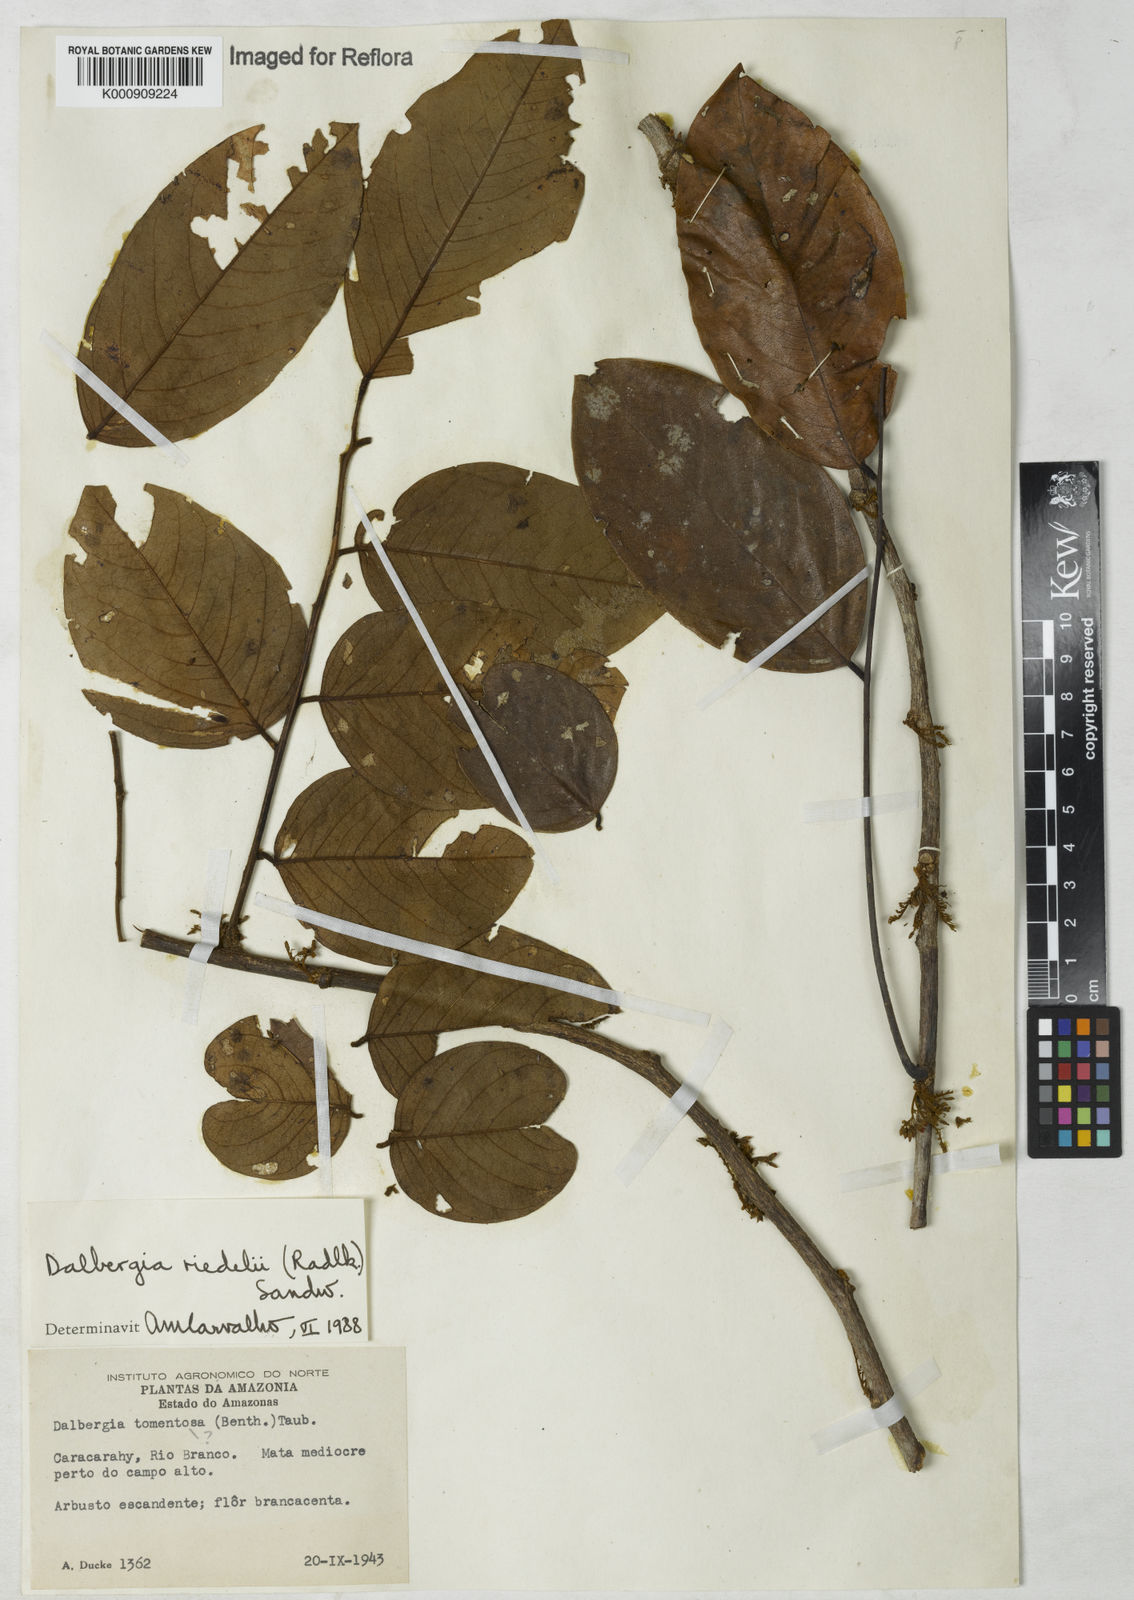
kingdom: Plantae
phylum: Tracheophyta
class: Magnoliopsida
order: Fabales
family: Fabaceae
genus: Dalbergia
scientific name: Dalbergia riedelii
